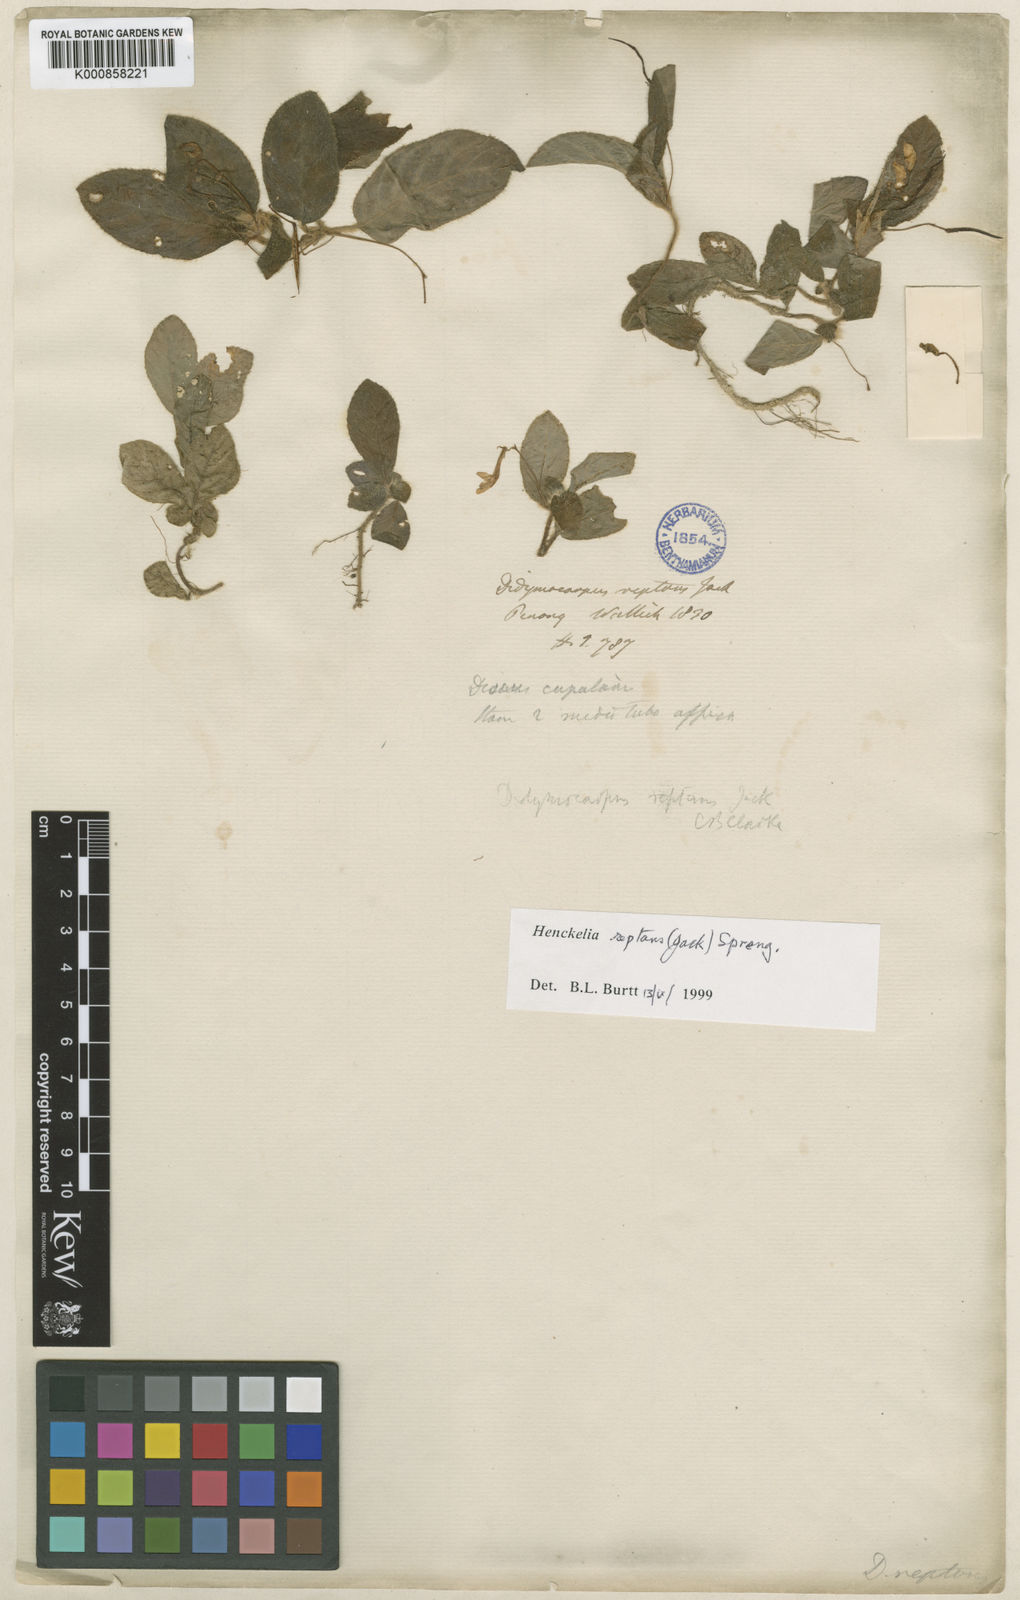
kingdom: Plantae
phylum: Tracheophyta
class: Magnoliopsida
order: Lamiales
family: Gesneriaceae
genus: Codonoboea
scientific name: Codonoboea reptans
